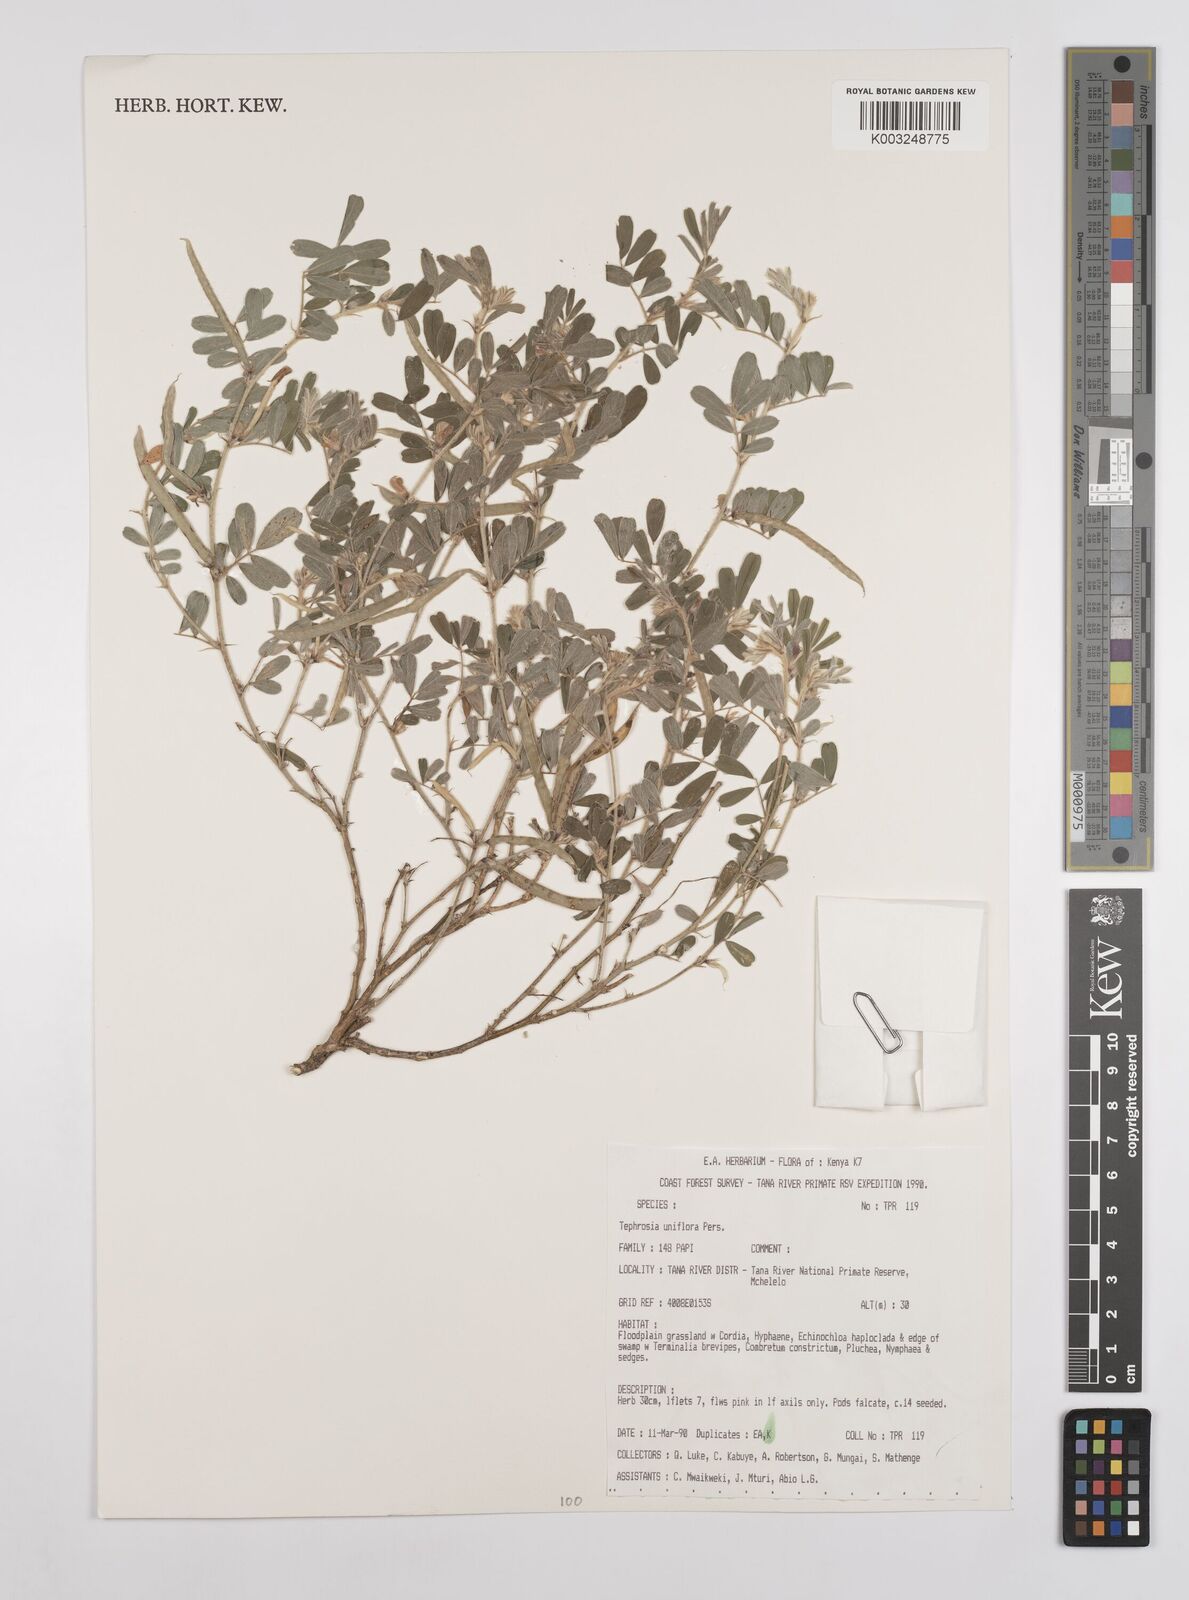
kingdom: Plantae
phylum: Tracheophyta
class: Magnoliopsida
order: Fabales
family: Fabaceae
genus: Tephrosia
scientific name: Tephrosia uniflora
